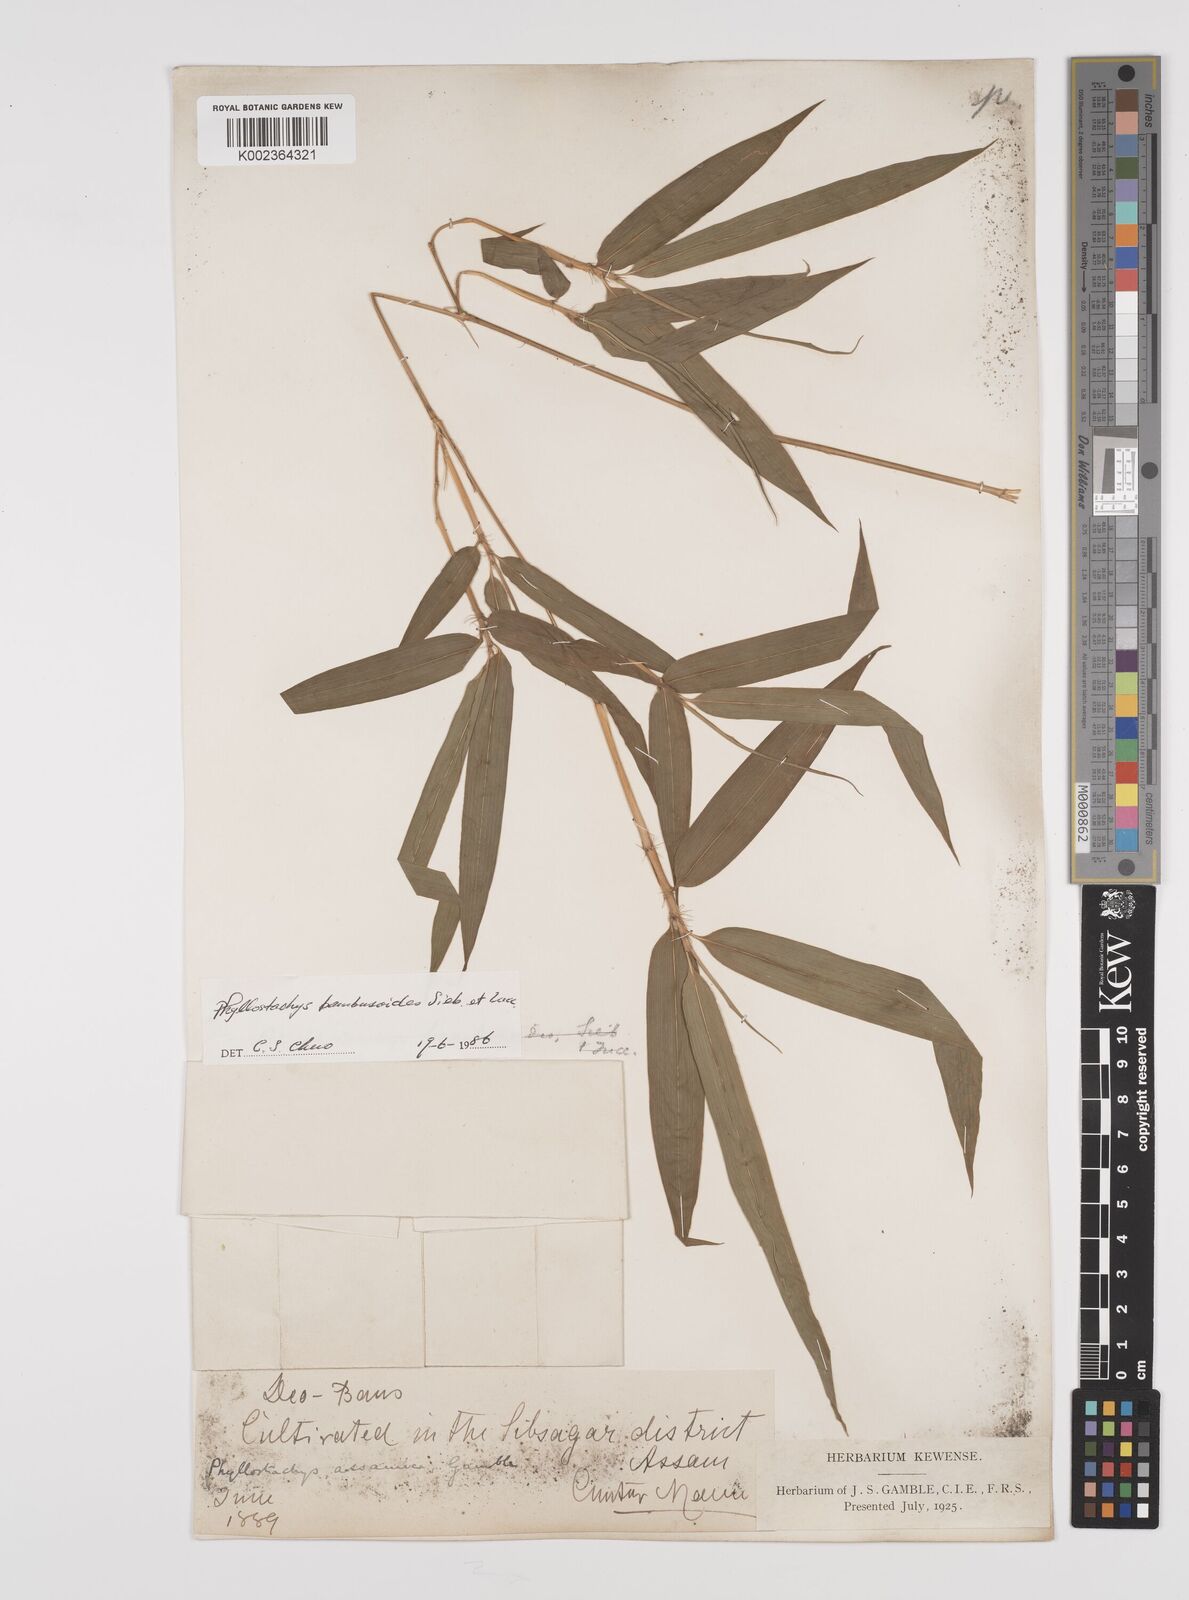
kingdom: Plantae
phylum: Tracheophyta
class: Liliopsida
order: Poales
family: Poaceae
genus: Phyllostachys
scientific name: Phyllostachys reticulata
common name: Bamboo
